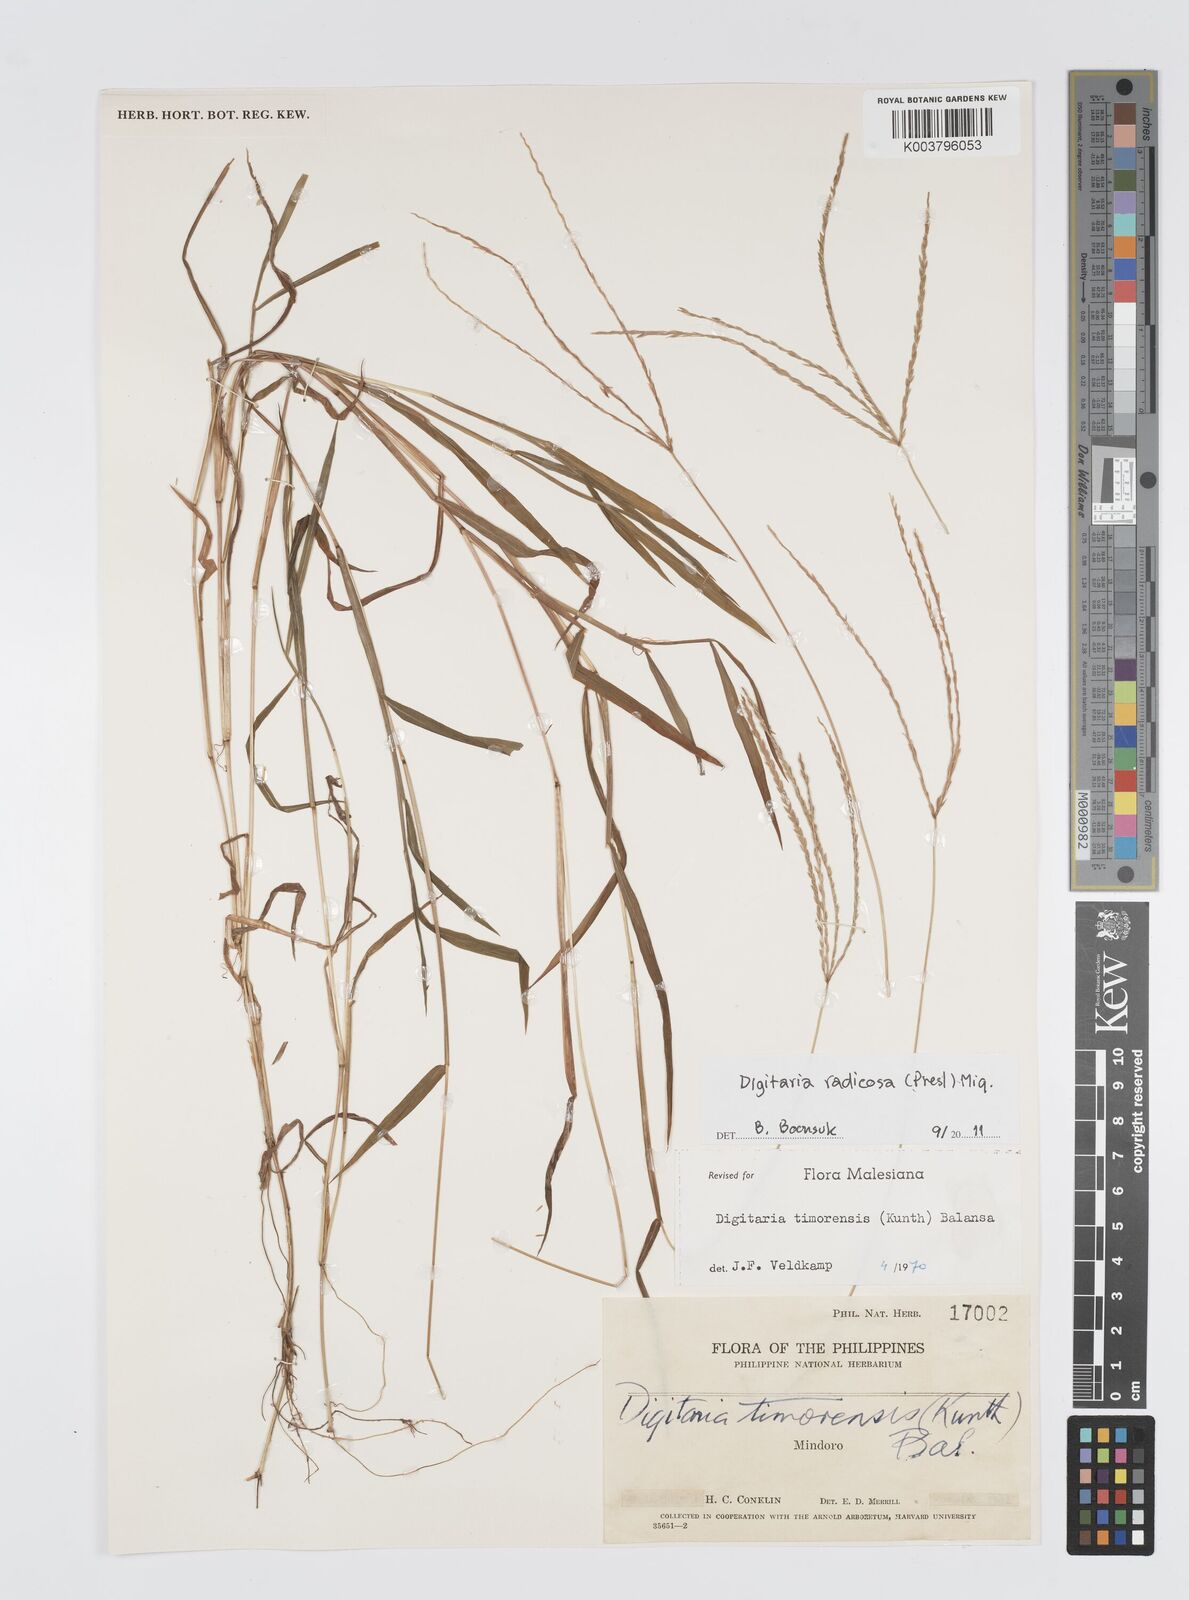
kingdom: Plantae
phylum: Tracheophyta
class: Liliopsida
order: Poales
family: Poaceae
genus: Digitaria
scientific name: Digitaria radicosa
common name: Trailing crabgrass
